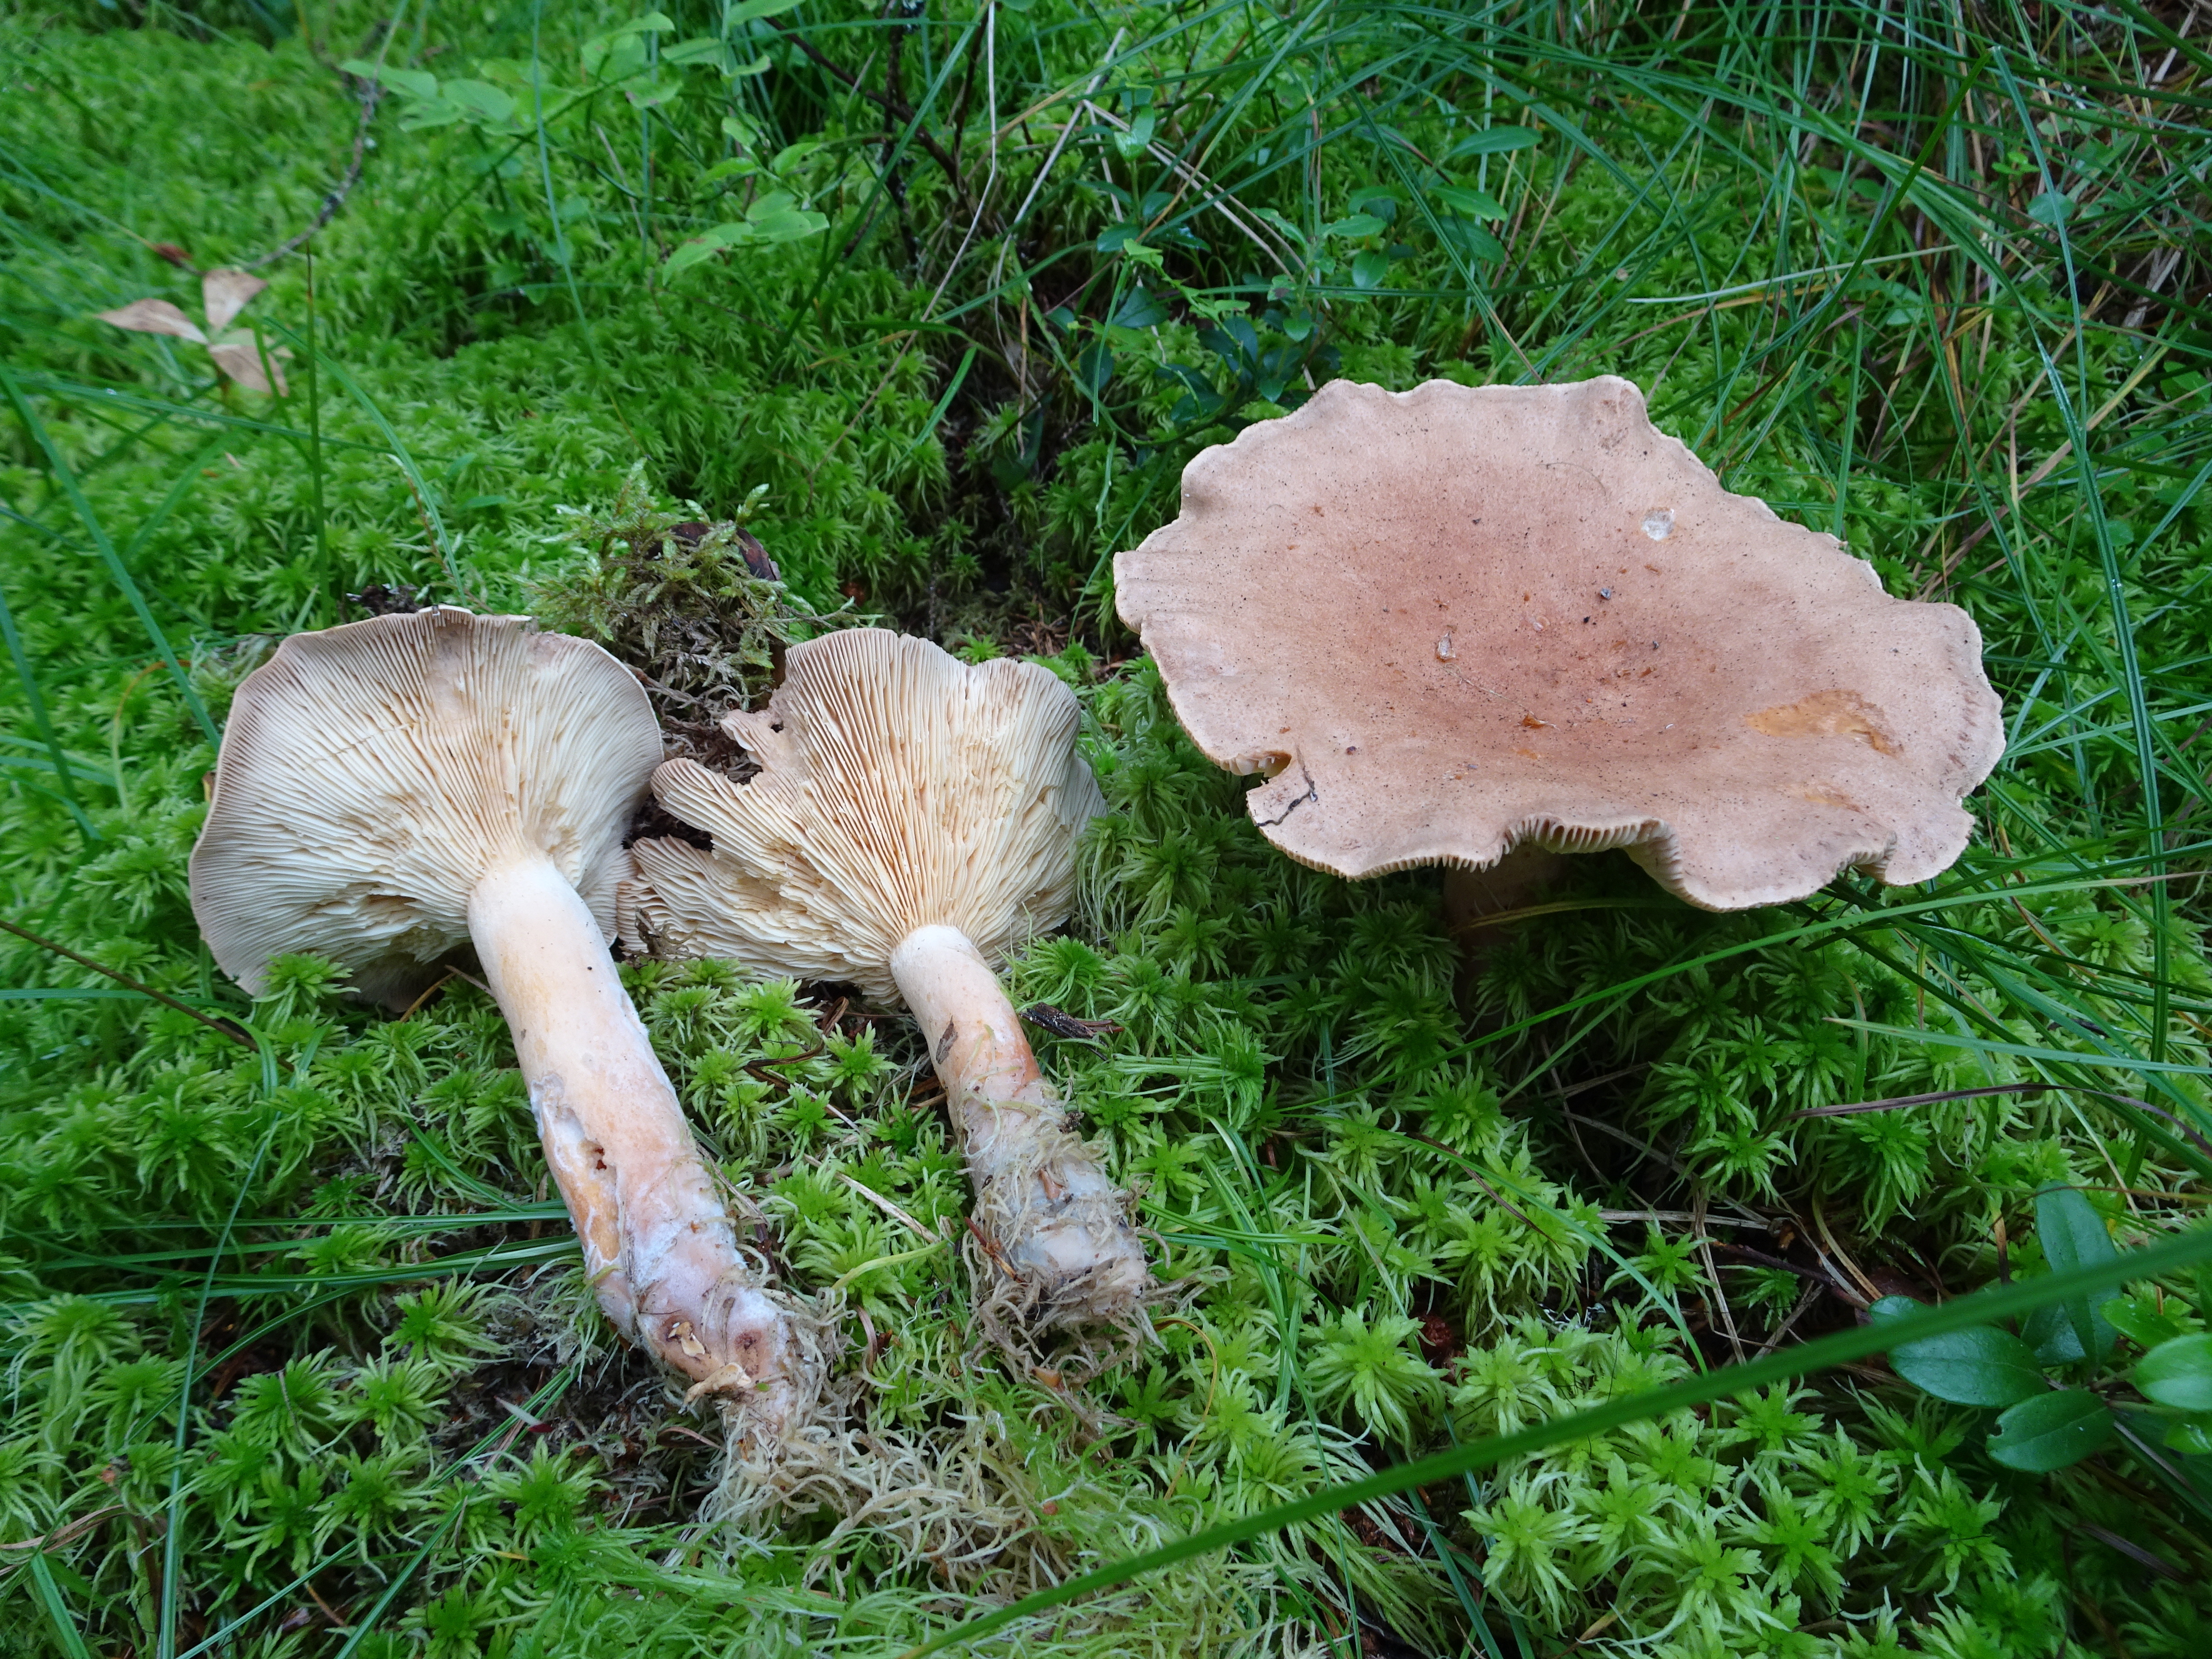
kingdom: Fungi
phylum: Basidiomycota
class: Agaricomycetes
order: Russulales
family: Russulaceae
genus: Lactarius
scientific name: Lactarius helvus
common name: Fenugreek milkcap
